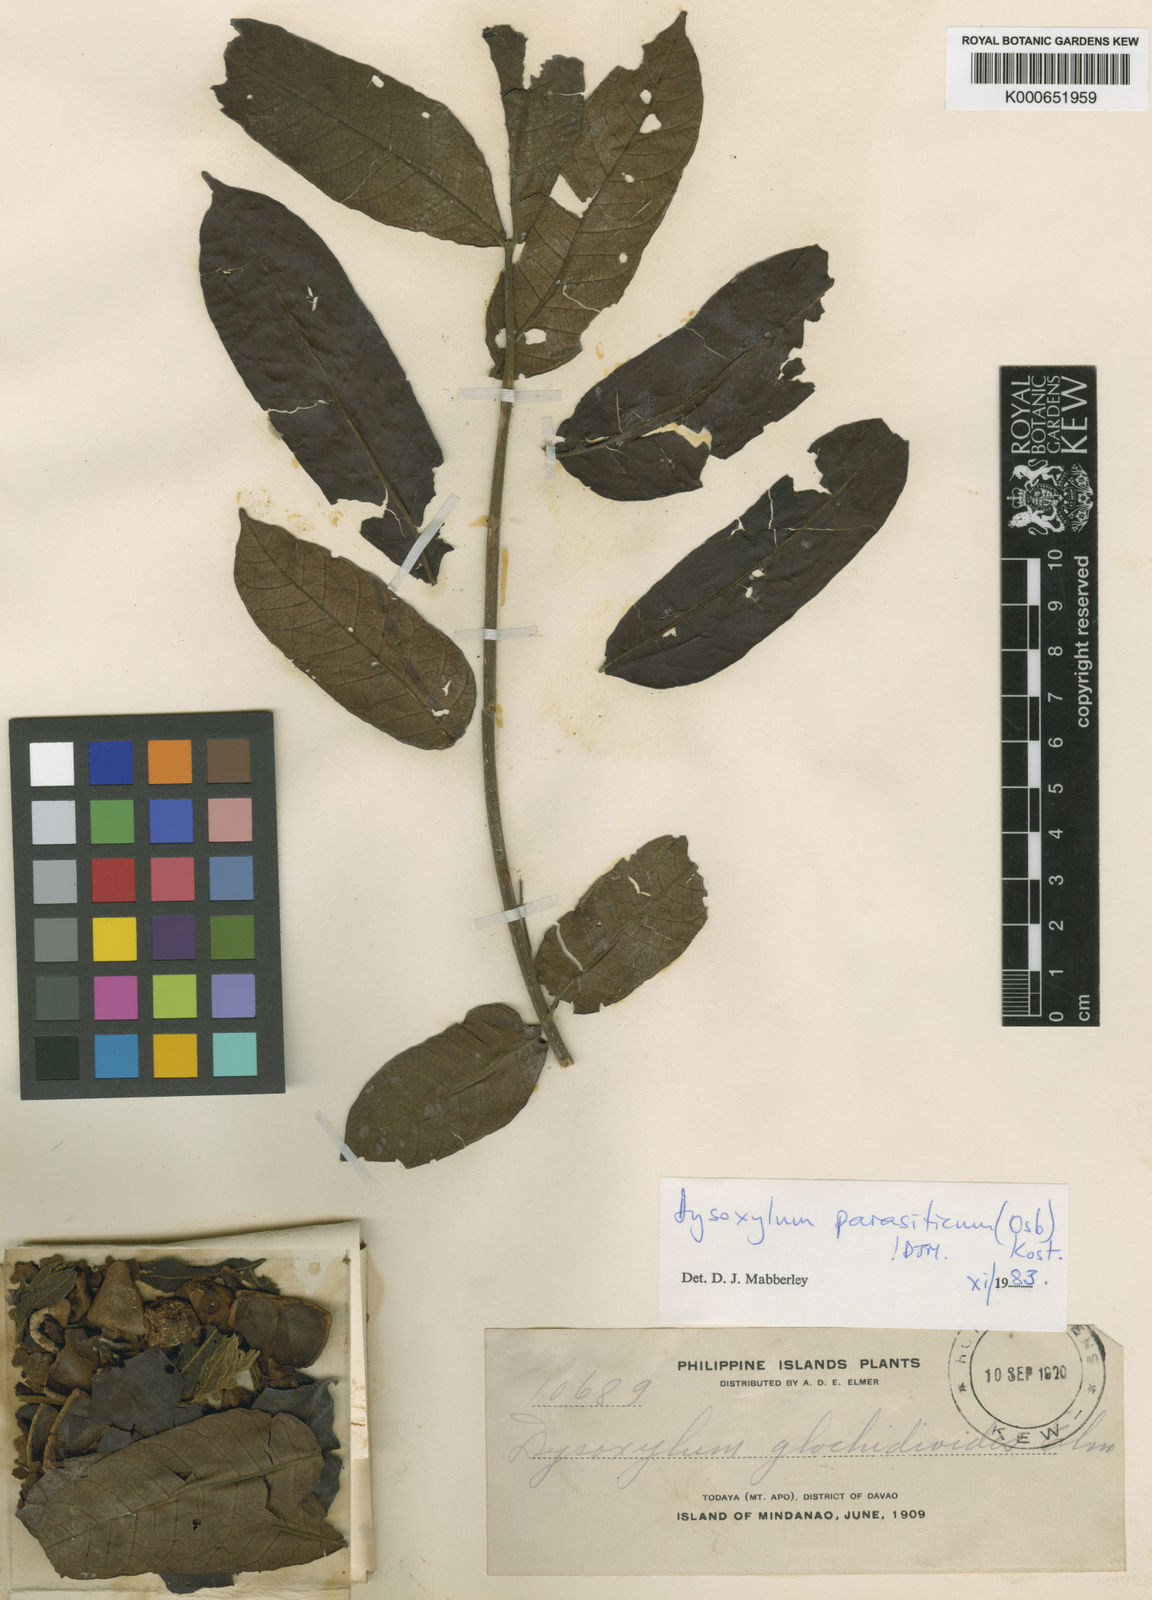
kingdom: Plantae
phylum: Tracheophyta
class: Magnoliopsida
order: Sapindales
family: Meliaceae
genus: Epicharis
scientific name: Epicharis parasitica
